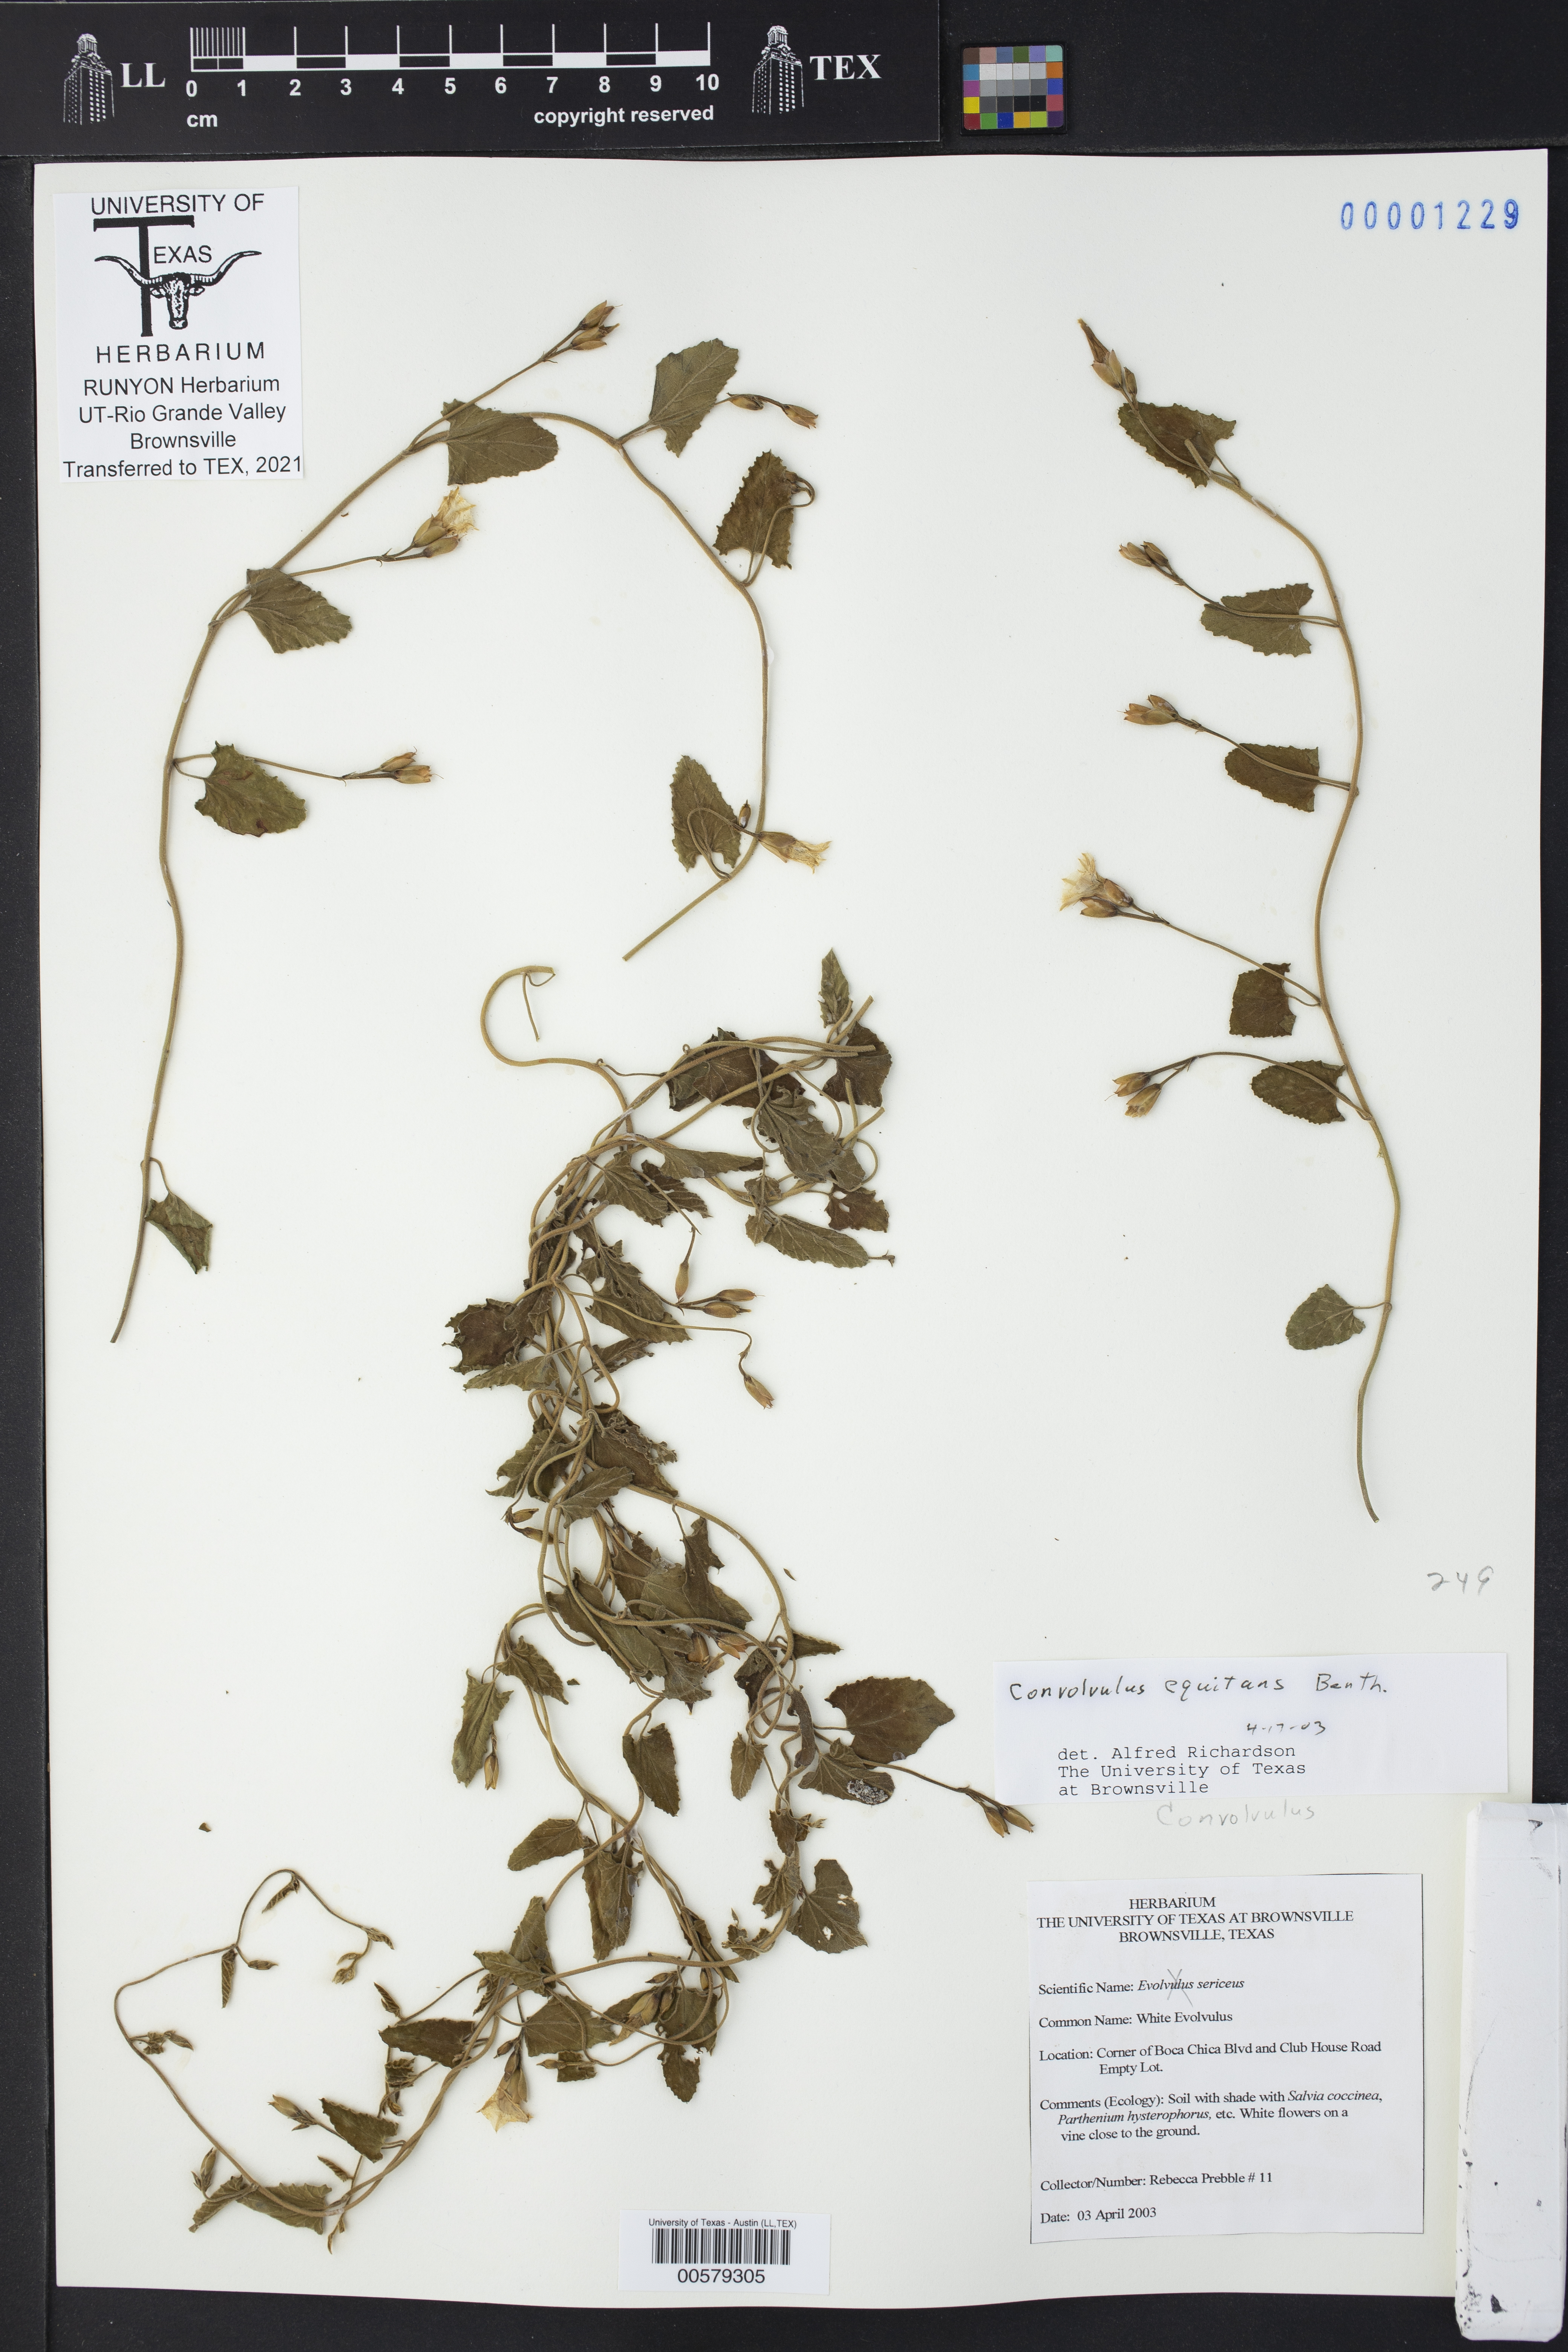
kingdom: Plantae
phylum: Tracheophyta
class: Magnoliopsida
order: Solanales
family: Convolvulaceae
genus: Convolvulus
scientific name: Convolvulus equitans
